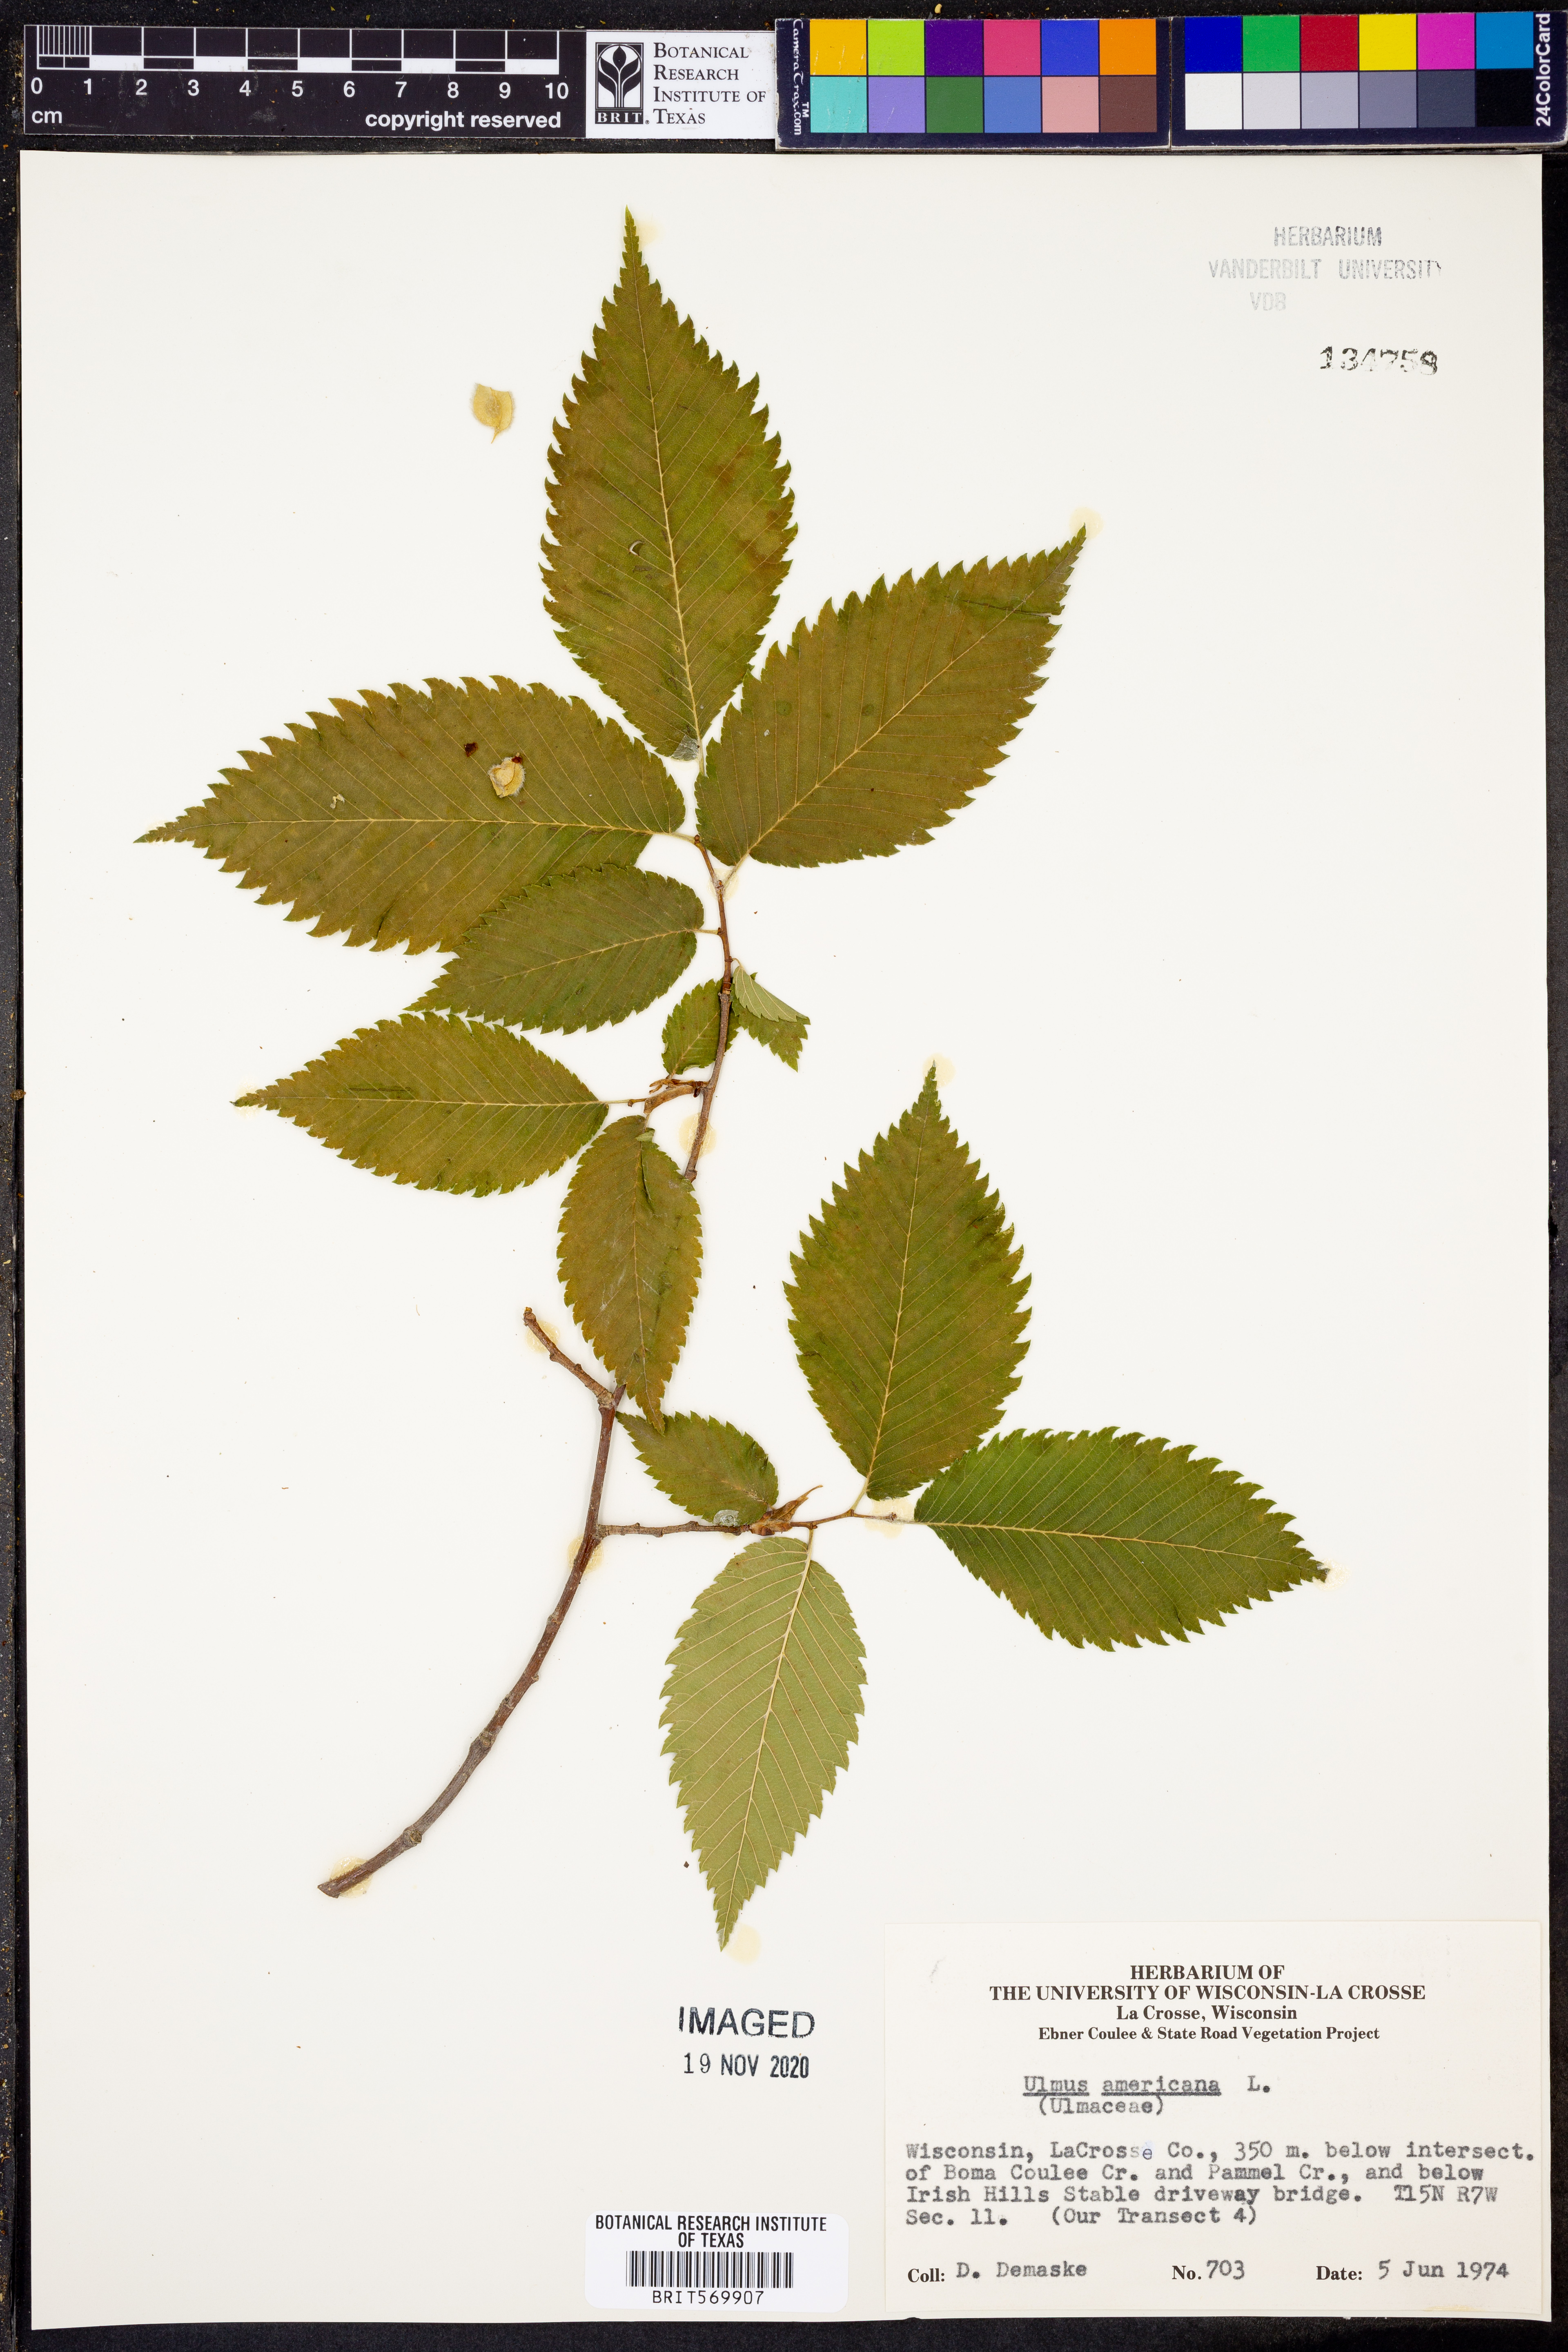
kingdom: Plantae
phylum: Tracheophyta
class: Magnoliopsida
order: Rosales
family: Ulmaceae
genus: Ulmus
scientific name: Ulmus americana
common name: American elm
